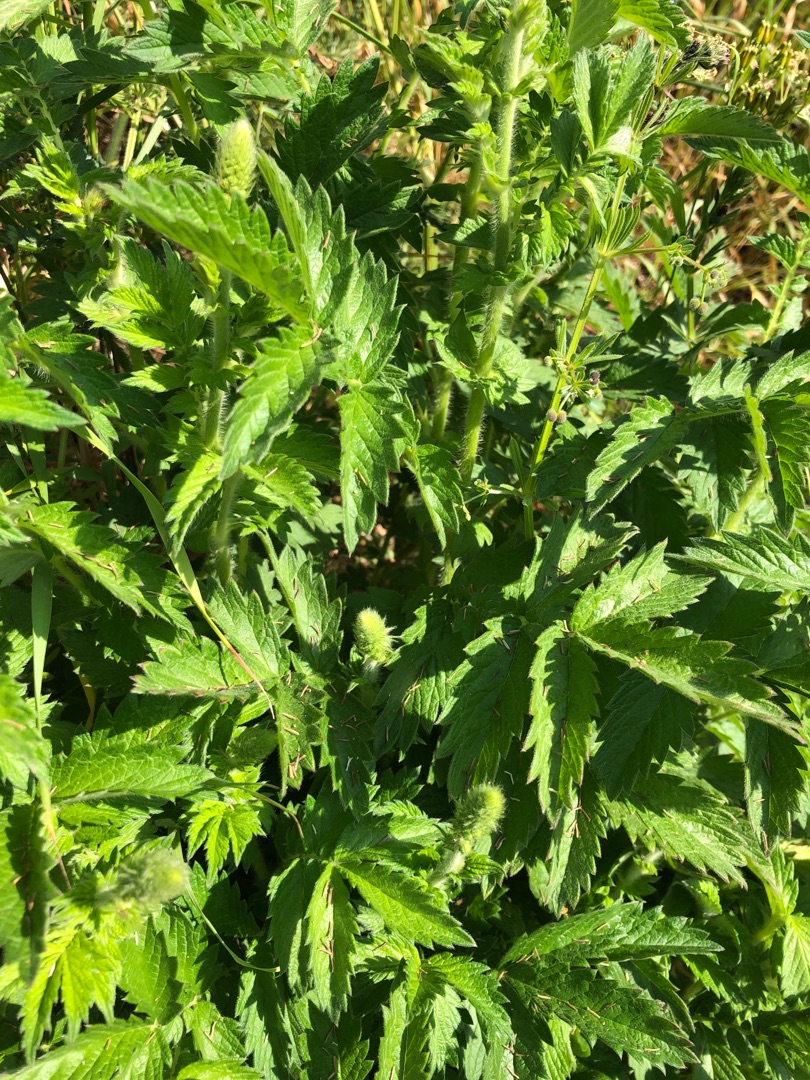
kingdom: Plantae
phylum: Tracheophyta
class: Magnoliopsida
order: Rosales
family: Rosaceae
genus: Agrimonia
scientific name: Agrimonia eupatoria
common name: Almindelig agermåne
